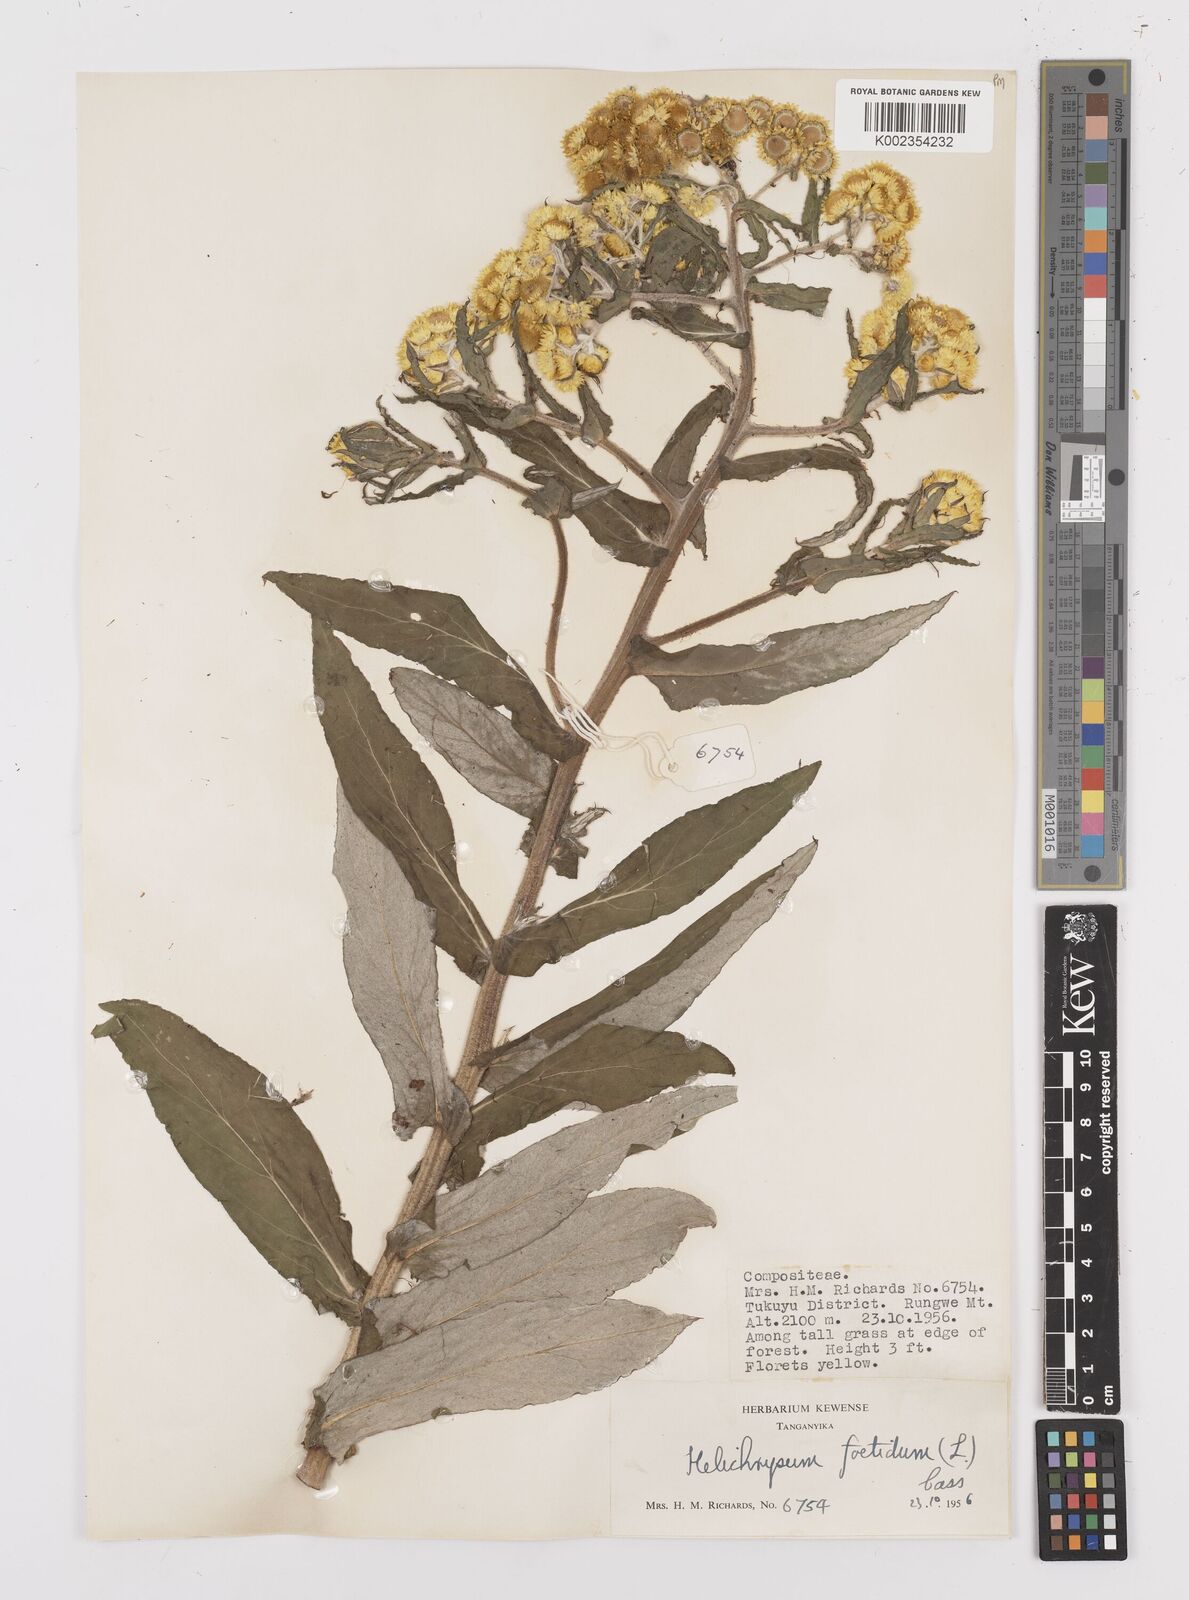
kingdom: Plantae
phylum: Tracheophyta
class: Magnoliopsida
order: Asterales
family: Asteraceae
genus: Helichrysum
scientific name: Helichrysum
